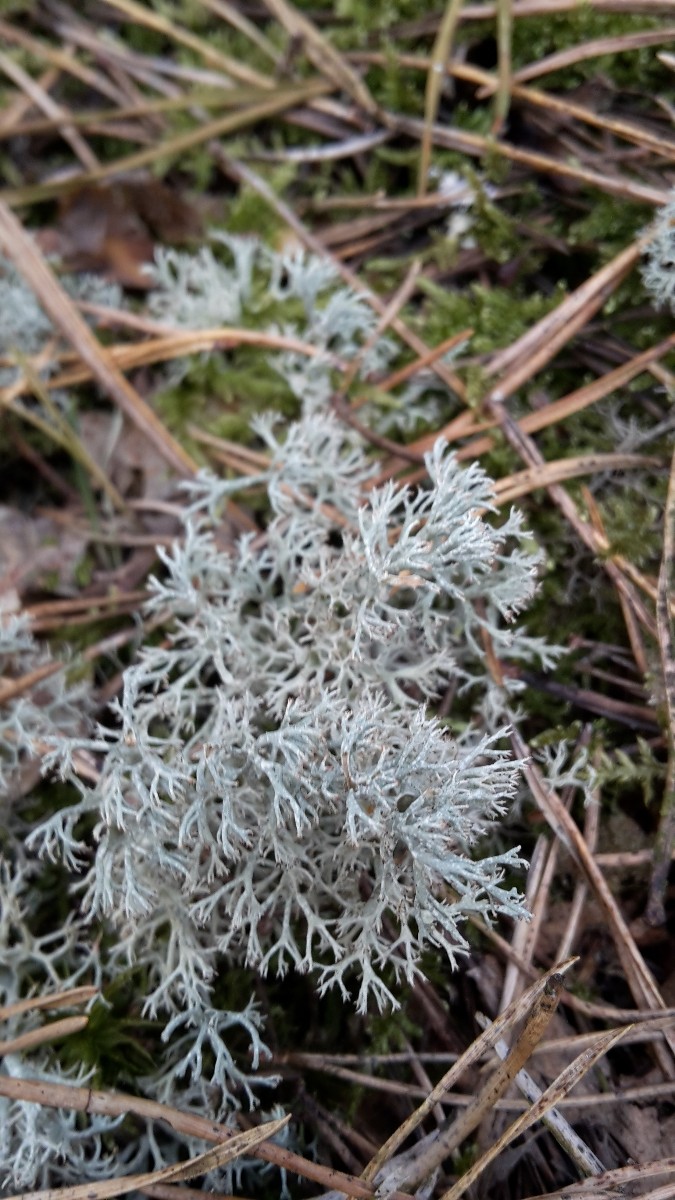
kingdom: Fungi
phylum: Ascomycota
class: Lecanoromycetes
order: Lecanorales
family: Cladoniaceae
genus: Cladonia
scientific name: Cladonia ciliata
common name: spinkel rensdyrlav
